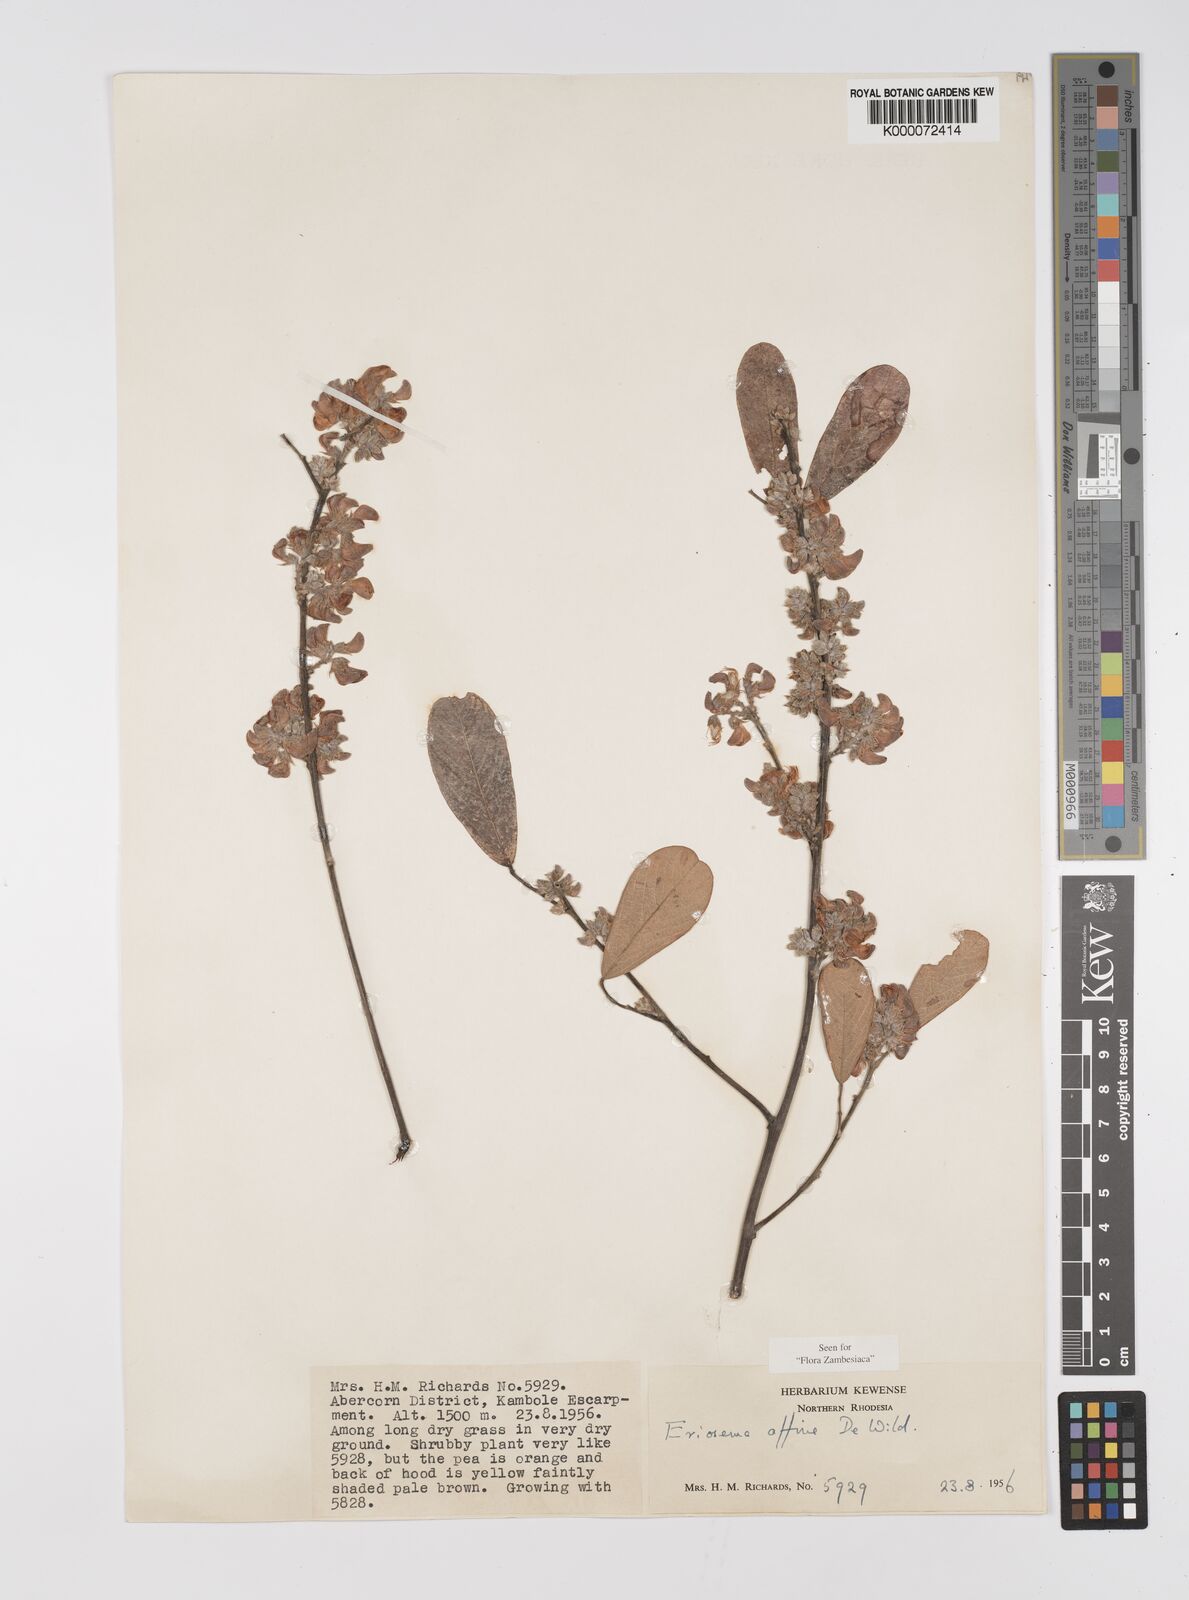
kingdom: Plantae
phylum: Tracheophyta
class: Magnoliopsida
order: Fabales
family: Fabaceae
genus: Eriosema
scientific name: Eriosema affine
